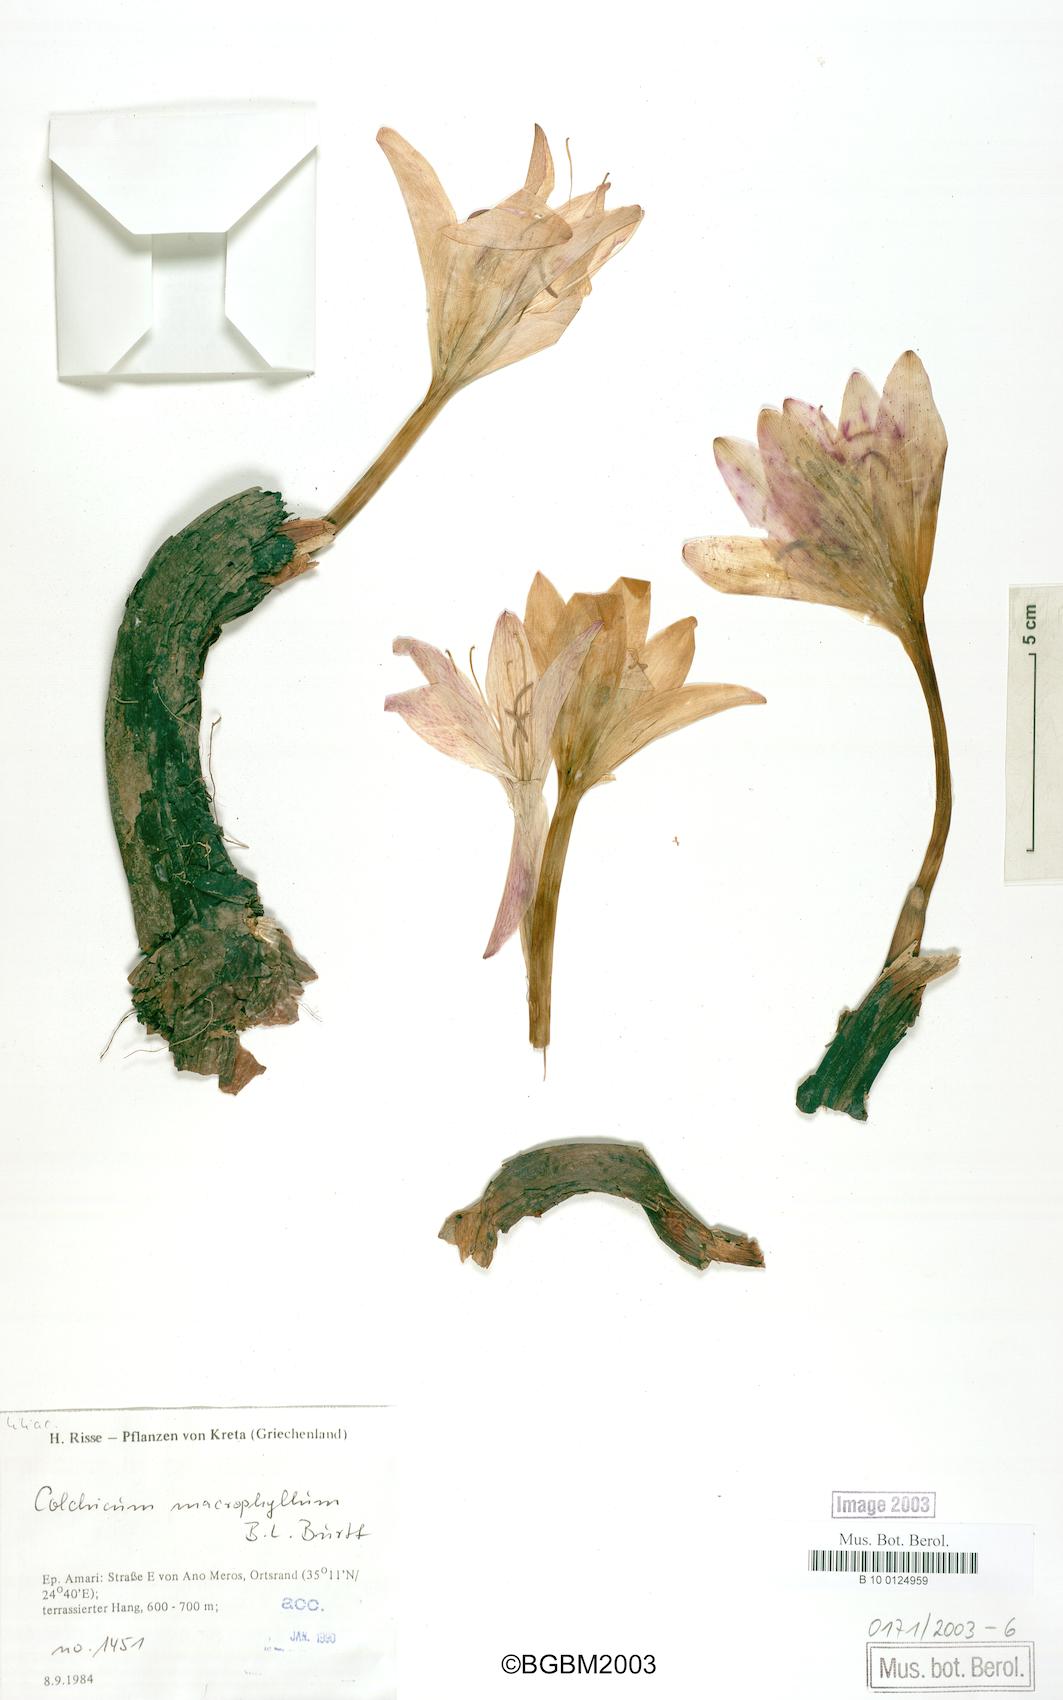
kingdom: Plantae
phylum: Tracheophyta
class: Liliopsida
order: Liliales
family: Colchicaceae
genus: Colchicum
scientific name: Colchicum macrophyllum
